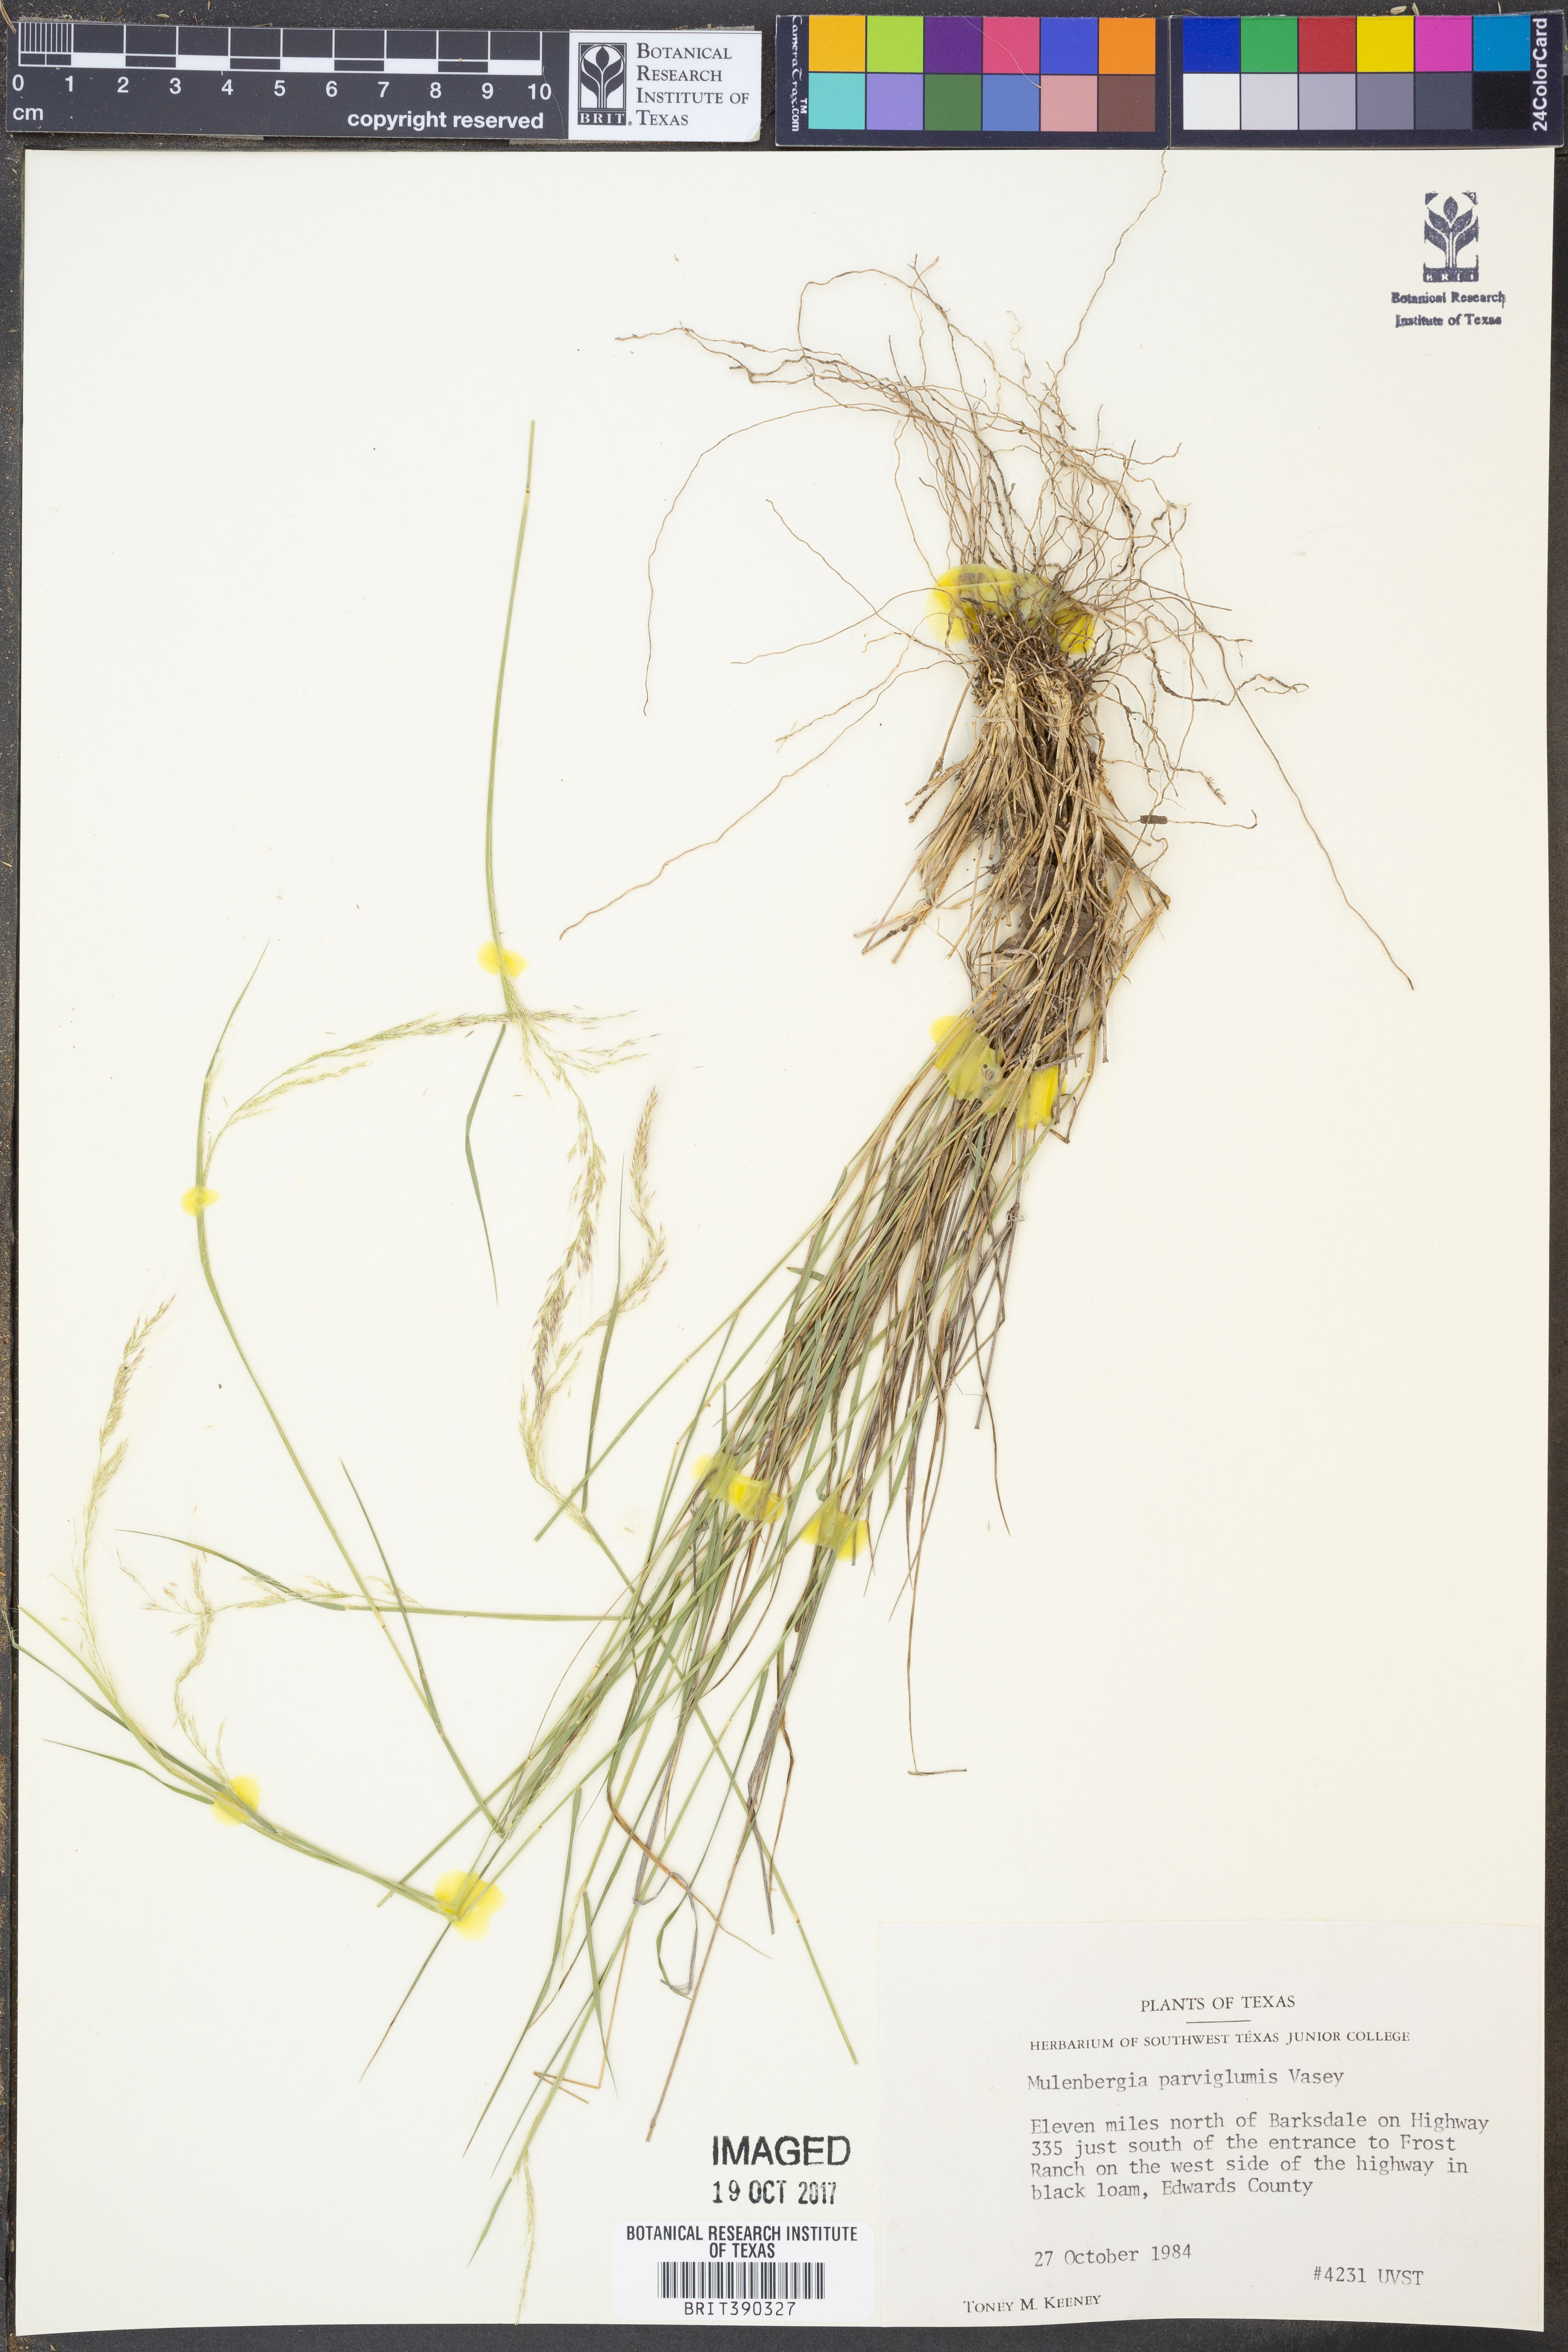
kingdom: Plantae
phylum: Tracheophyta
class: Liliopsida
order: Poales
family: Poaceae
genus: Muhlenbergia
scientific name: Muhlenbergia spiciformis
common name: Longawn muhly
